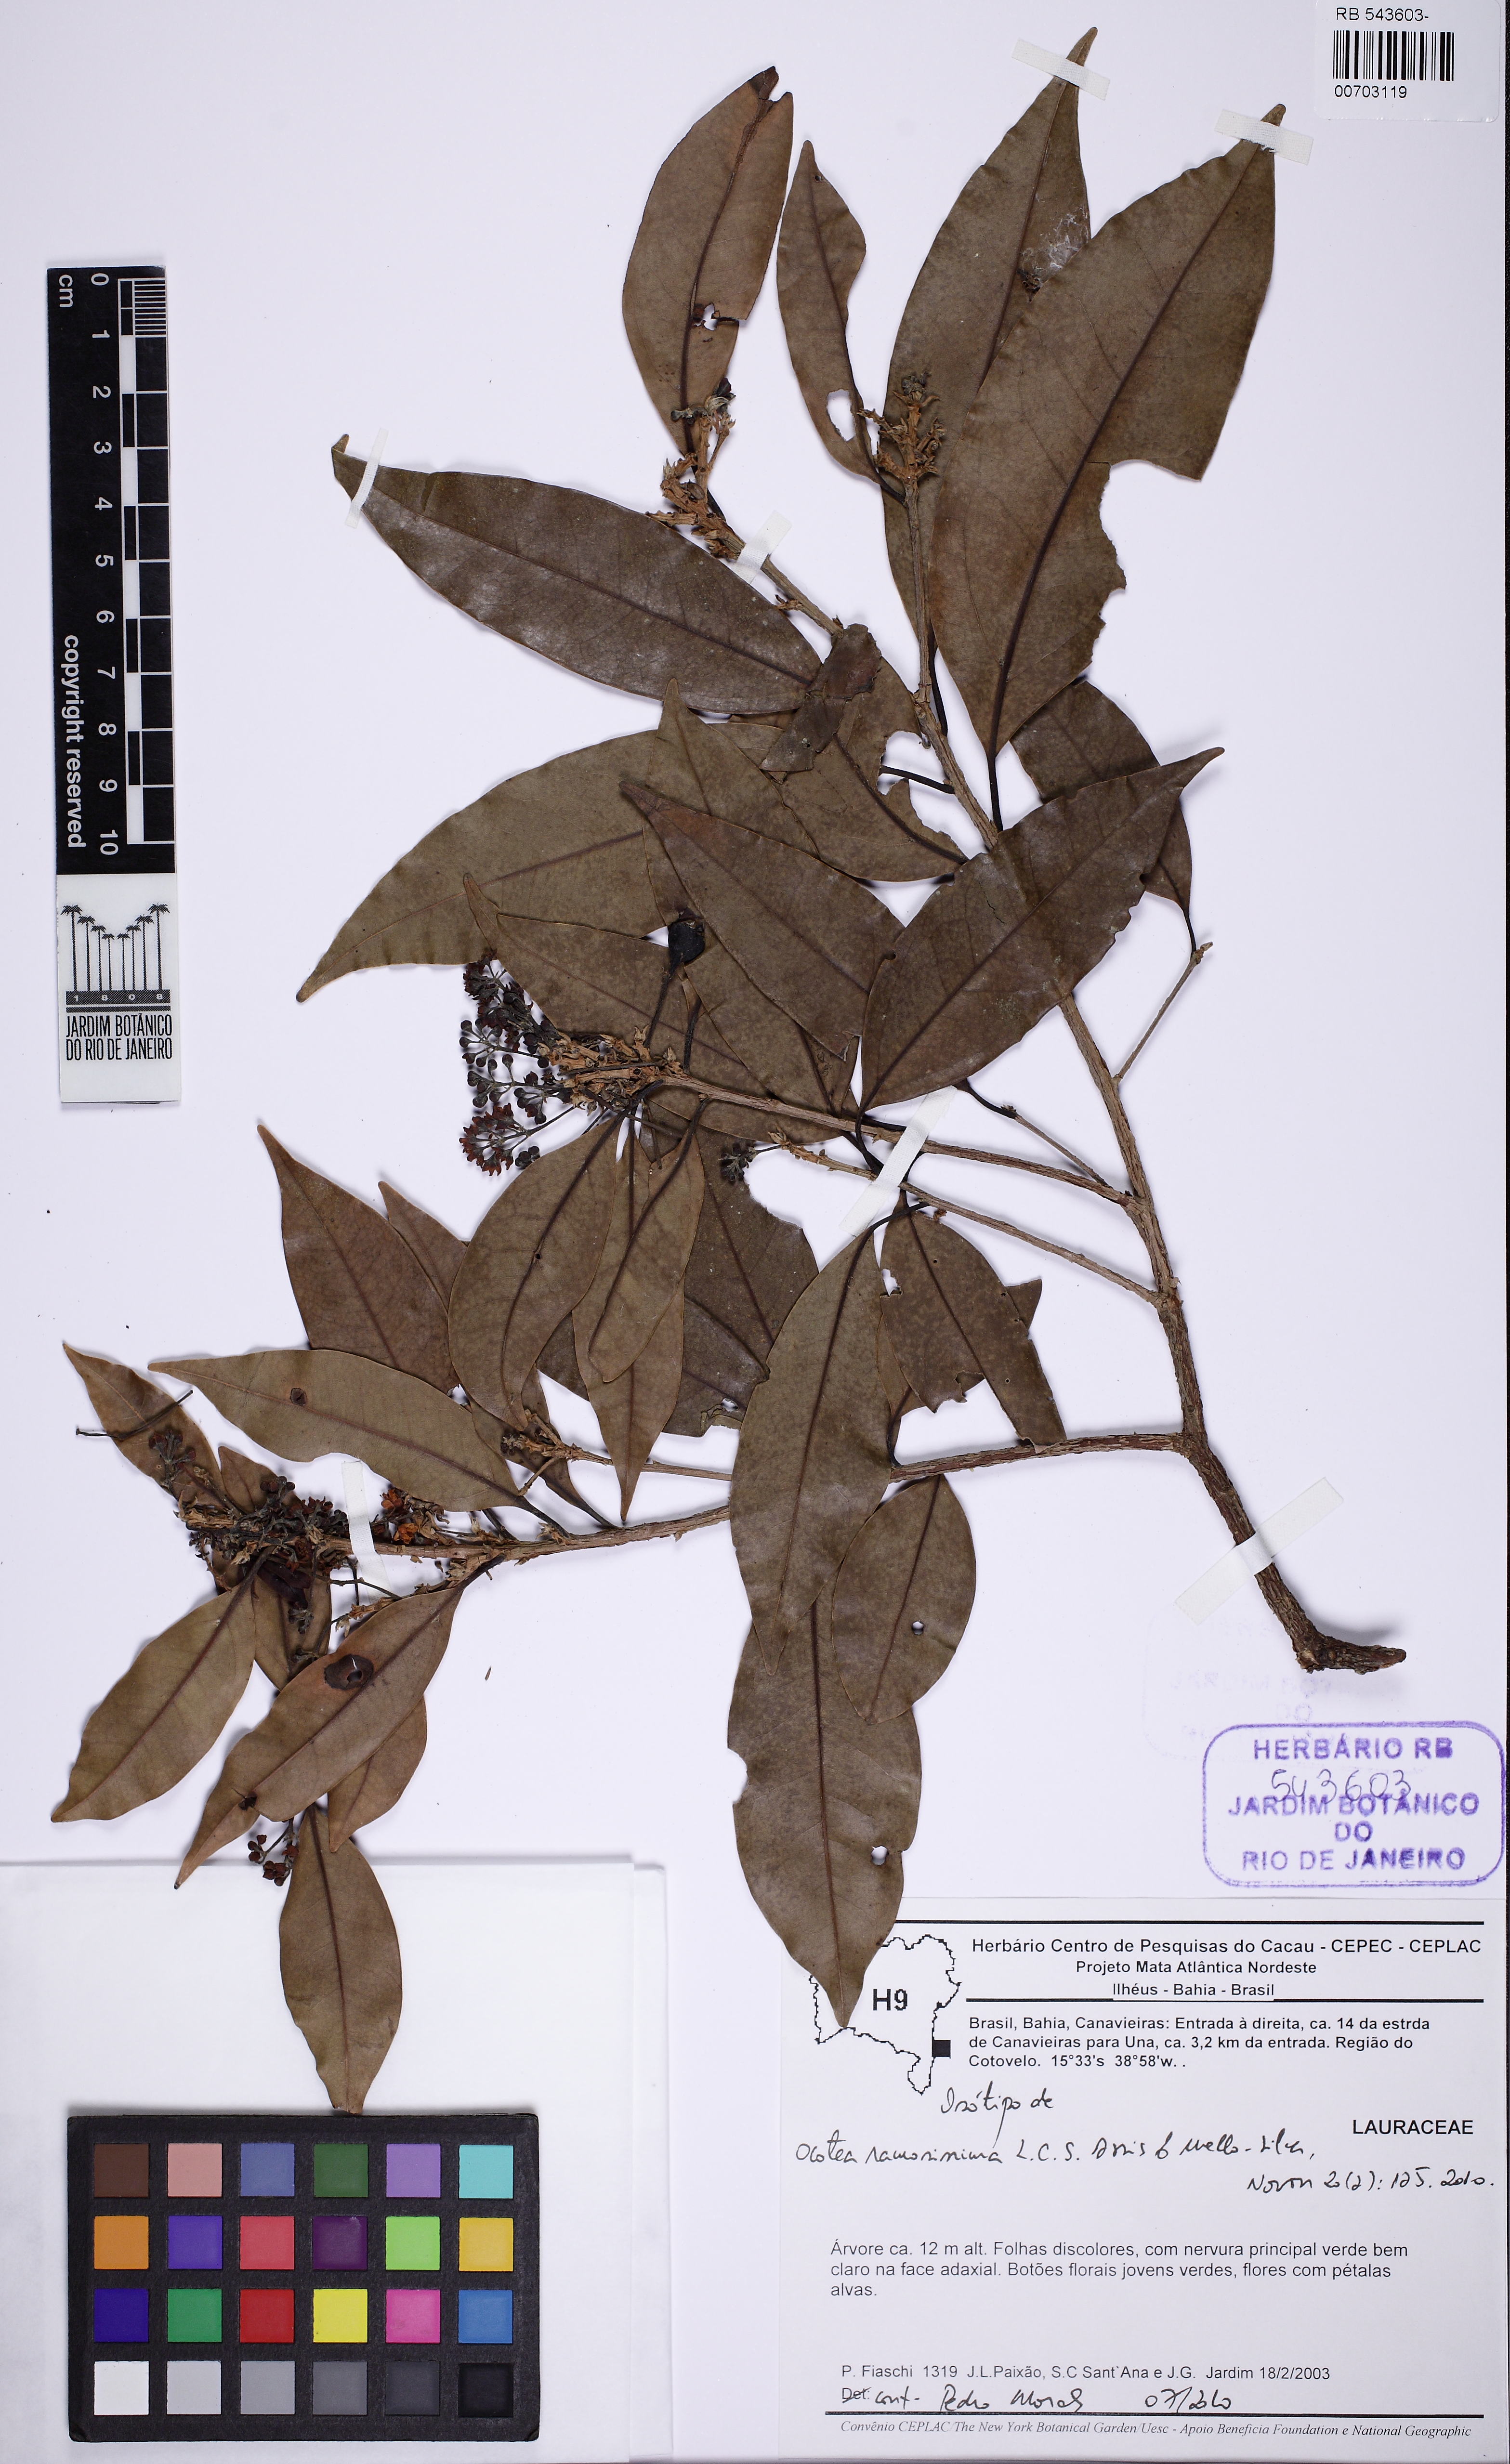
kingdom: Plantae
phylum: Tracheophyta
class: Magnoliopsida
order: Laurales
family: Lauraceae
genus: Ocotea
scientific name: Ocotea ramosissima
